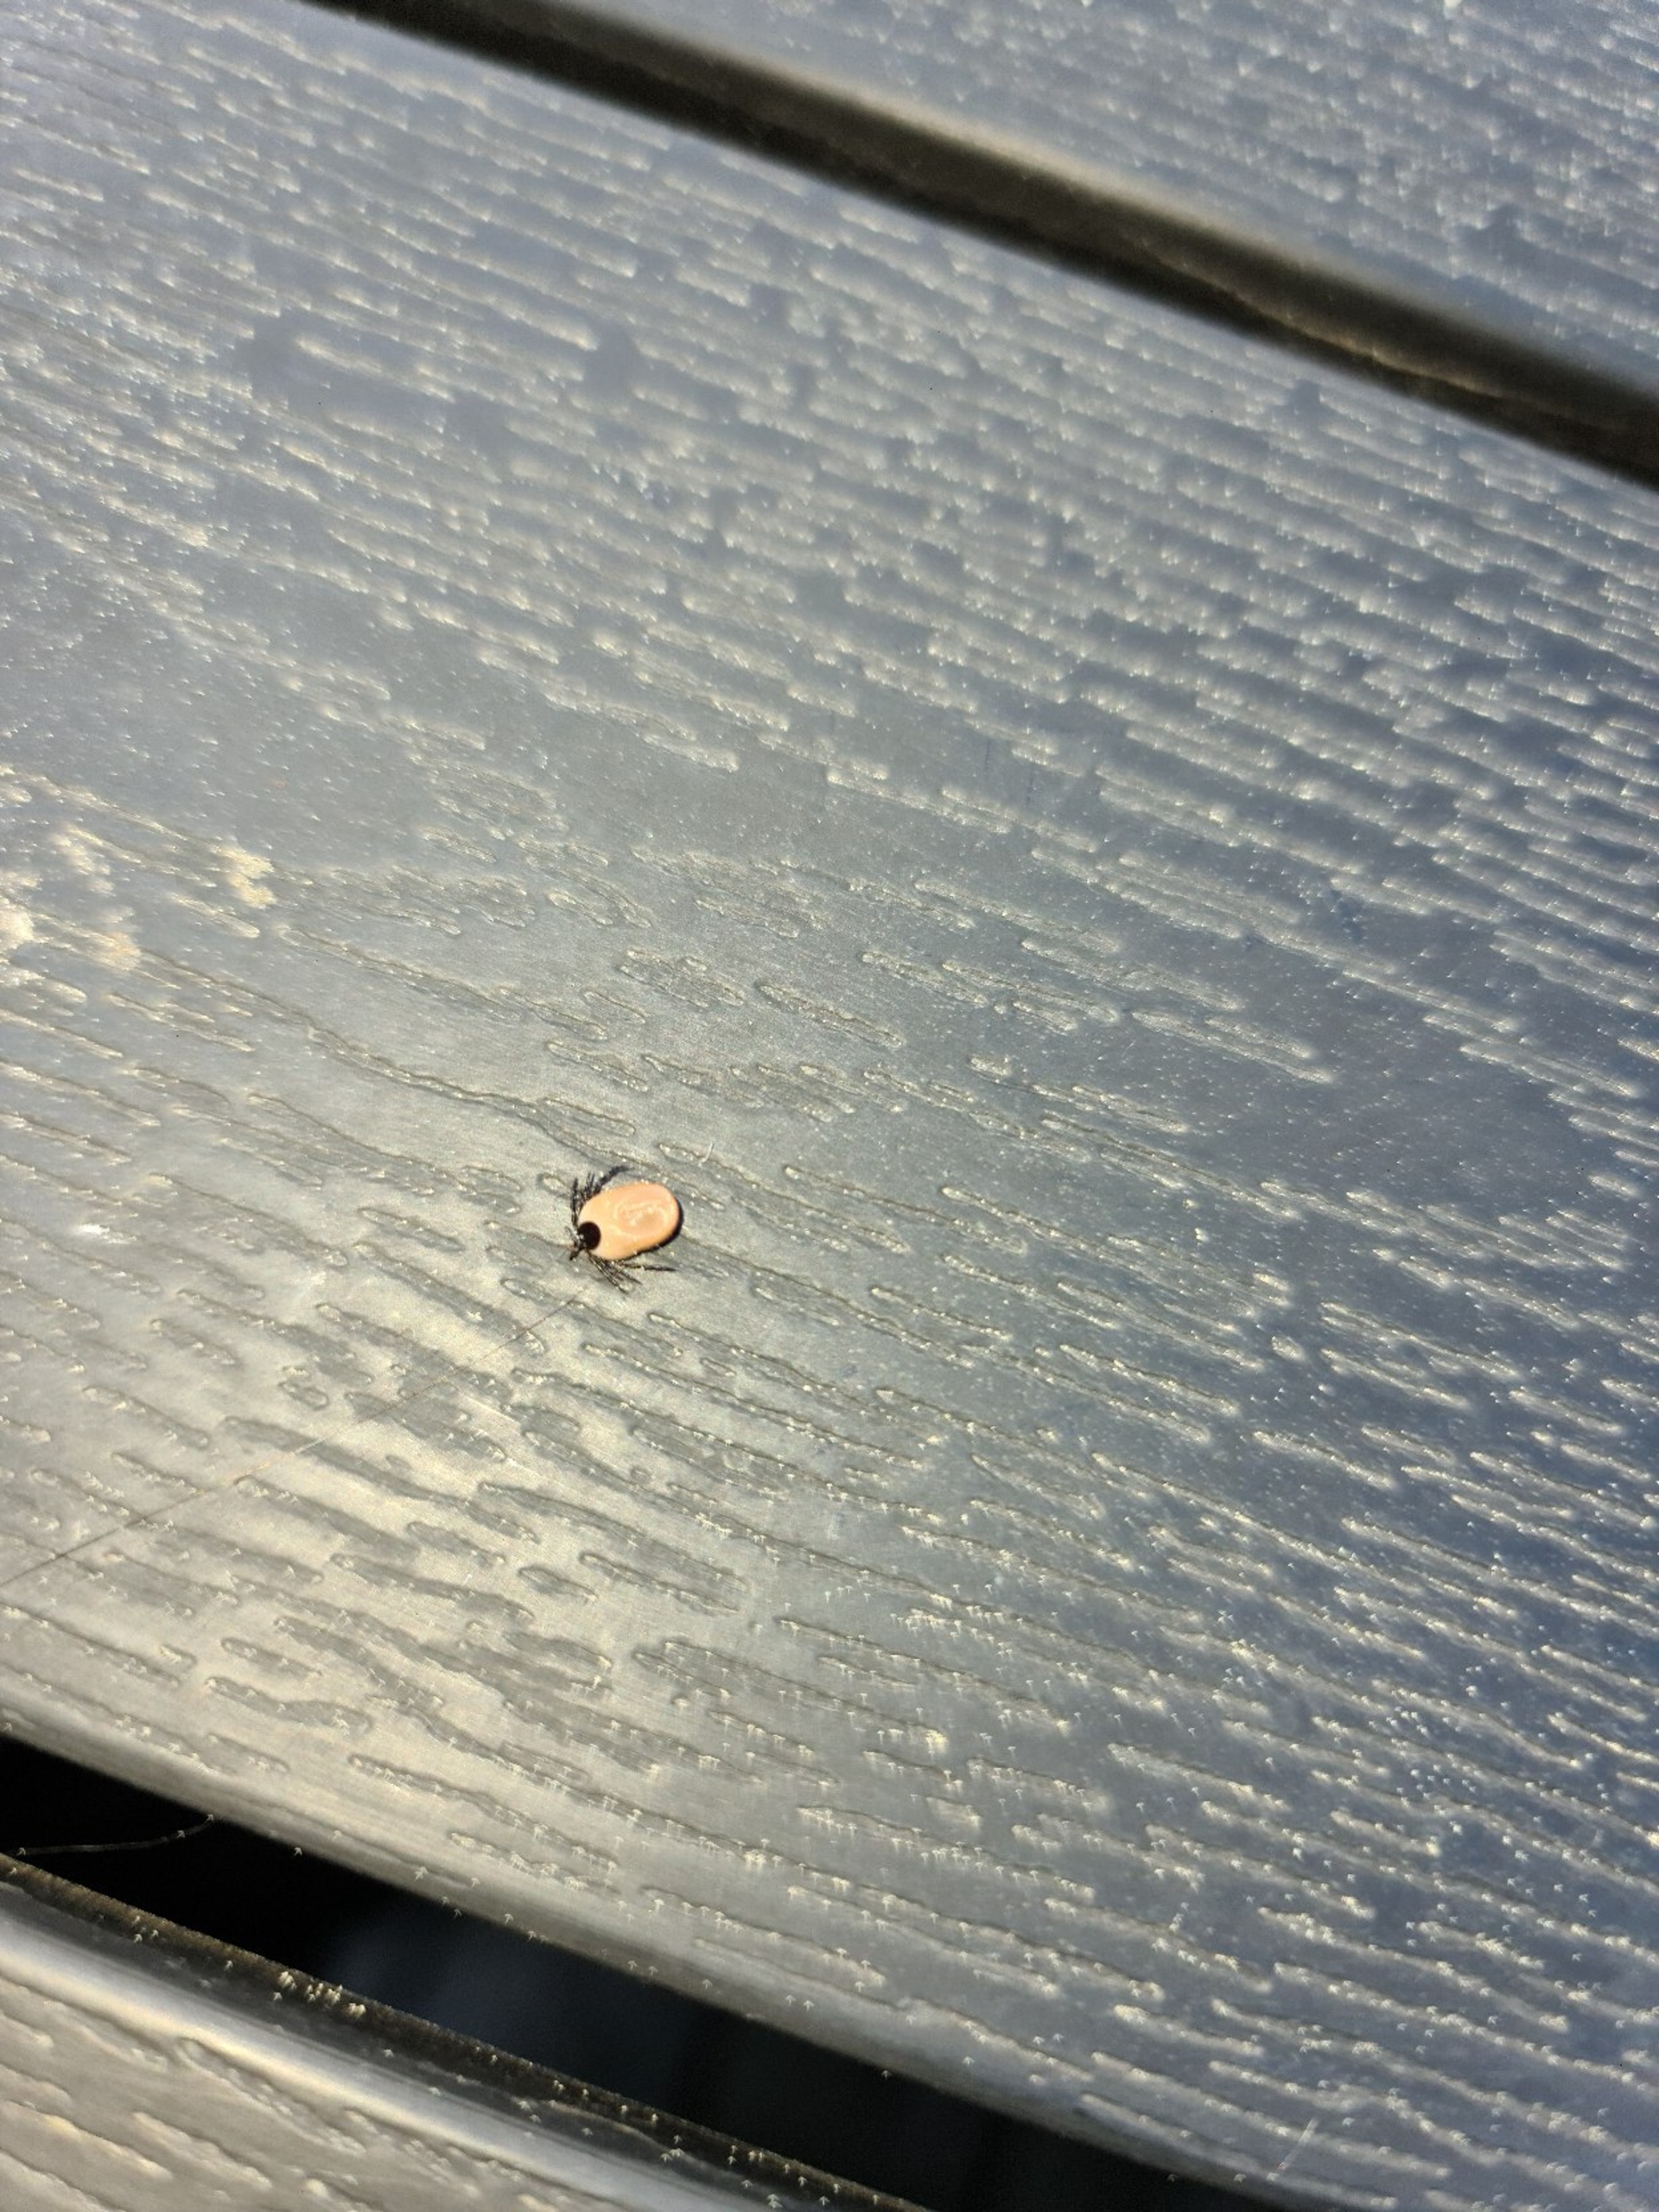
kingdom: Animalia
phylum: Arthropoda
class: Arachnida
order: Ixodida
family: Ixodidae
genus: Ixodes
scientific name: Ixodes ricinus
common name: Skovflåt
